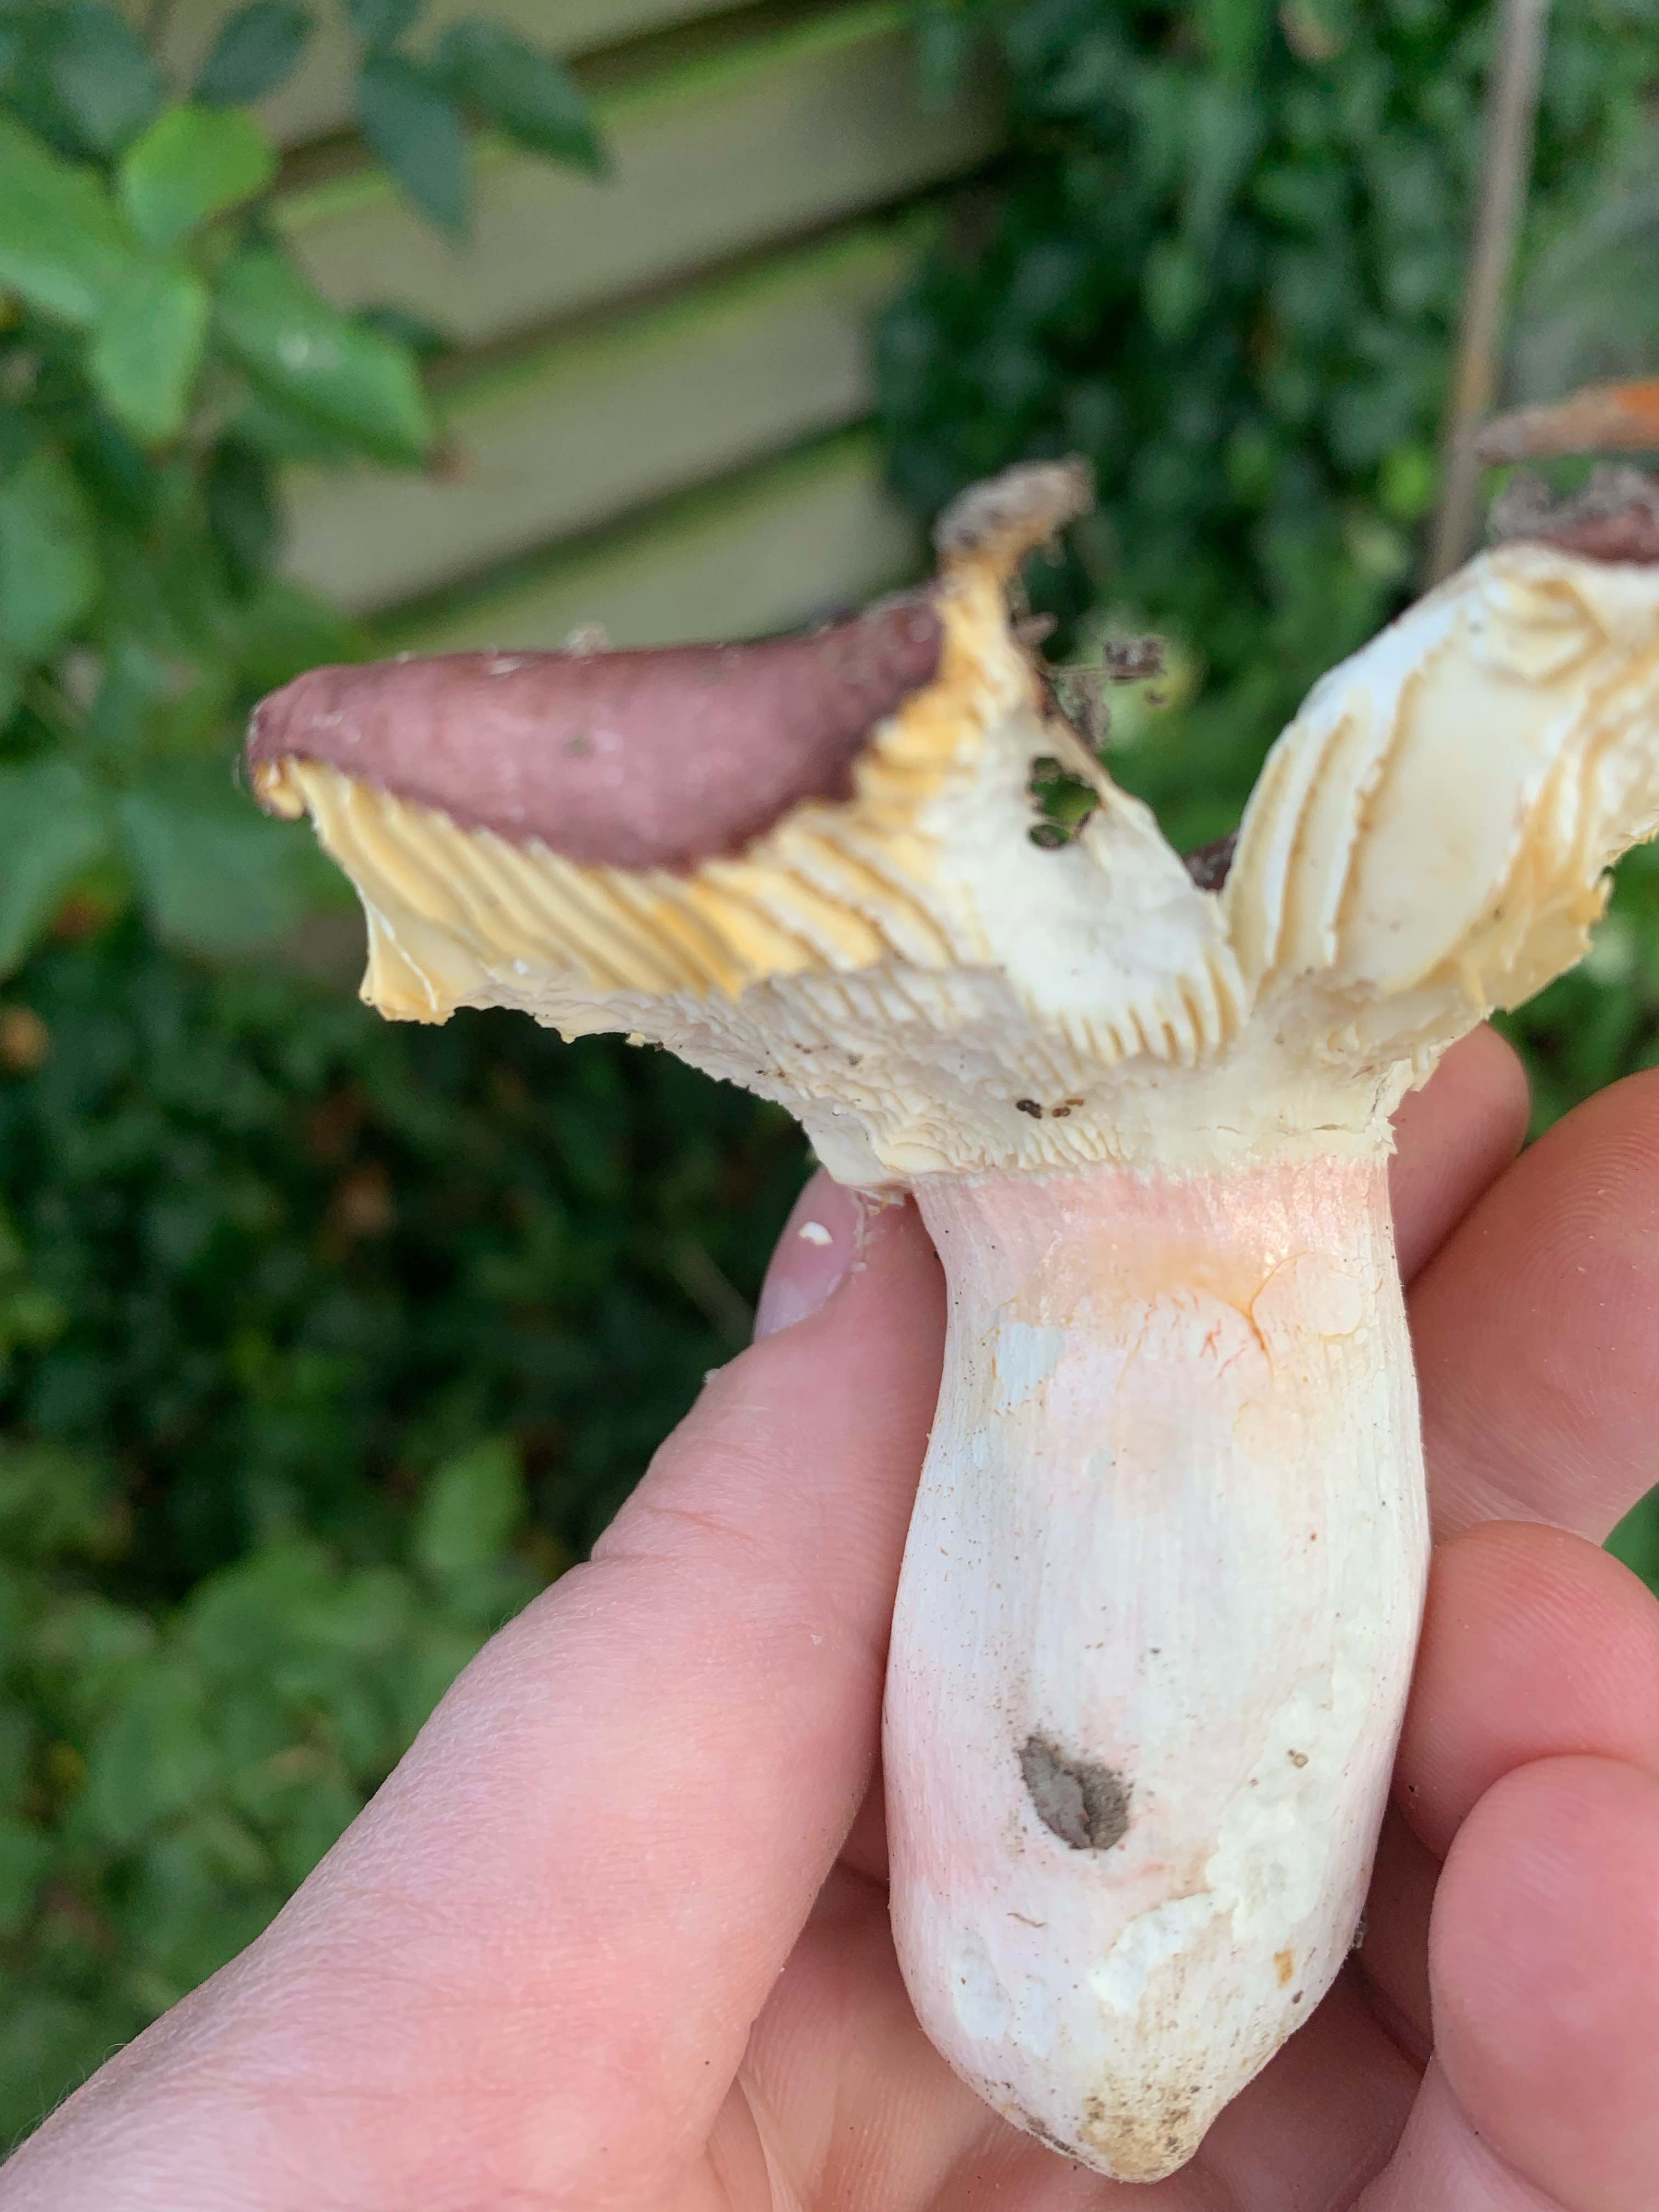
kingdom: Fungi
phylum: Basidiomycota
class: Agaricomycetes
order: Russulales
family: Russulaceae
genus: Russula
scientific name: Russula olivacea
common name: stor skørhat
